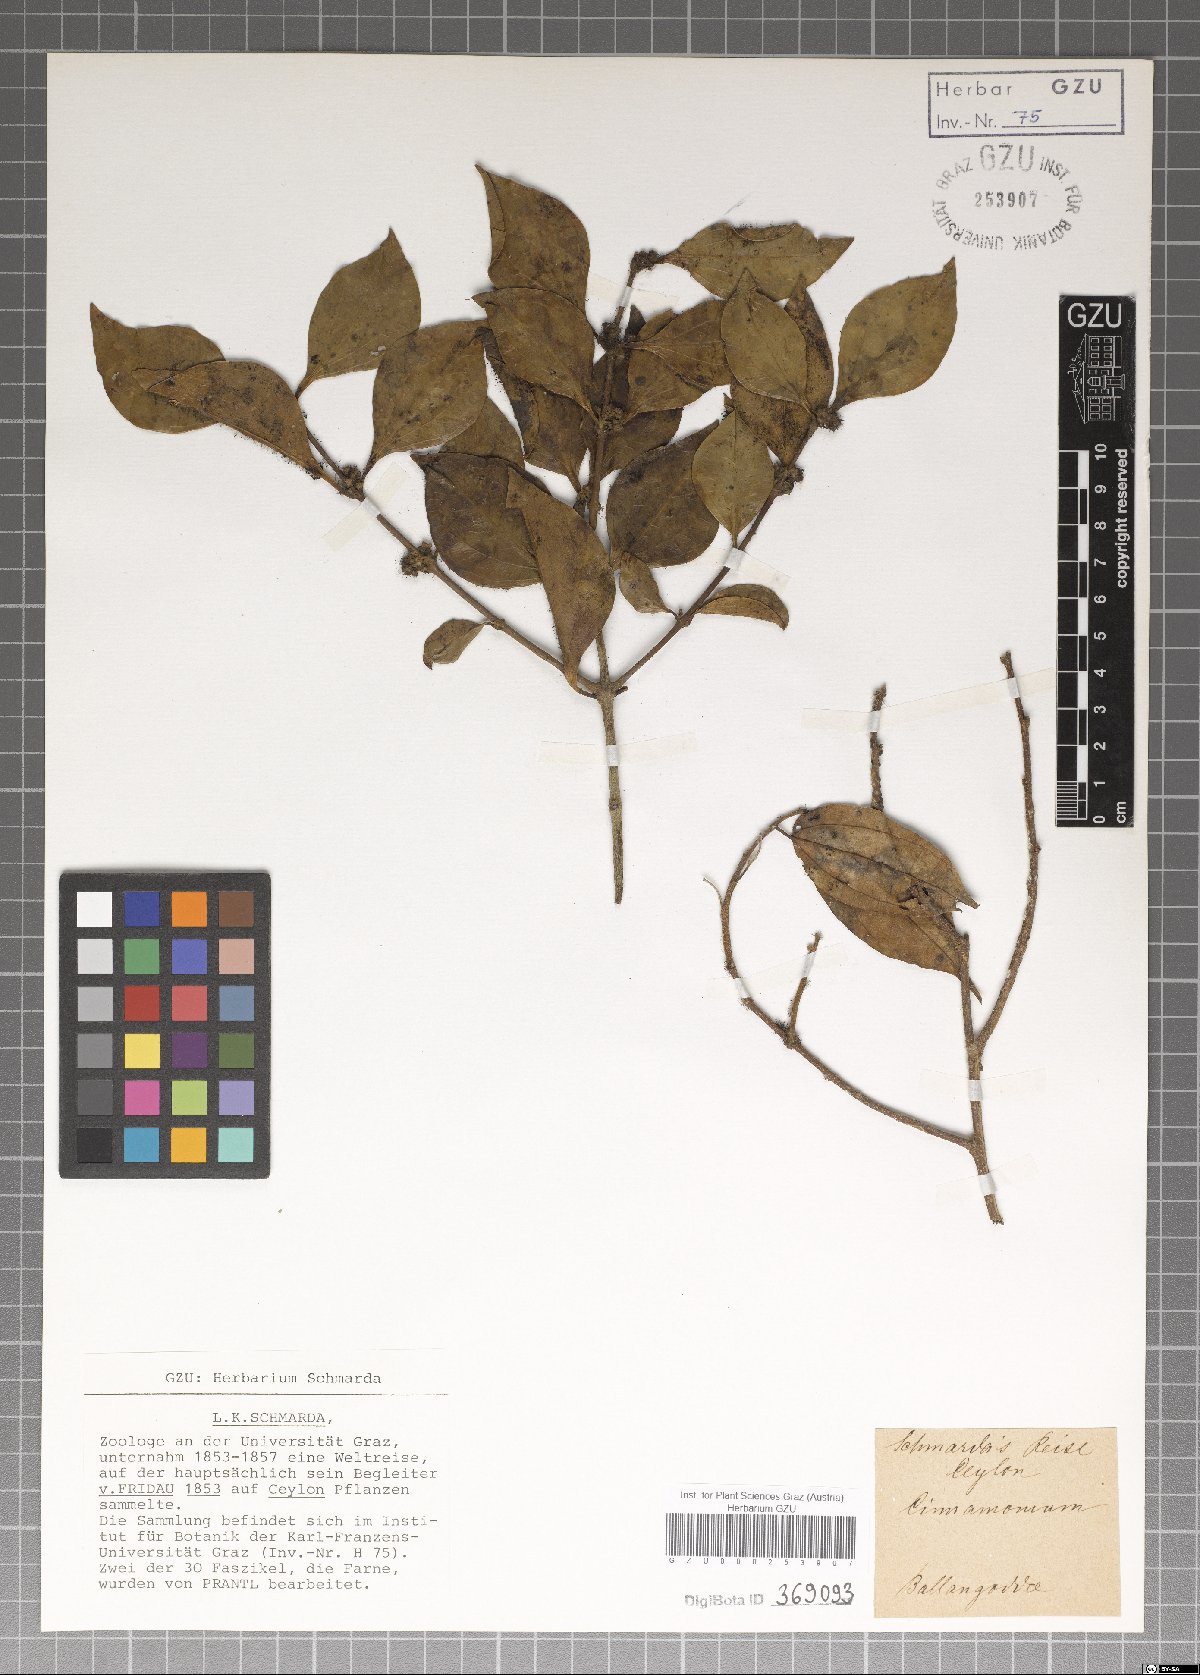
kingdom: Plantae
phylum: Tracheophyta
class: Magnoliopsida
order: Laurales
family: Lauraceae
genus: Cinnamomum
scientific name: Cinnamomum
